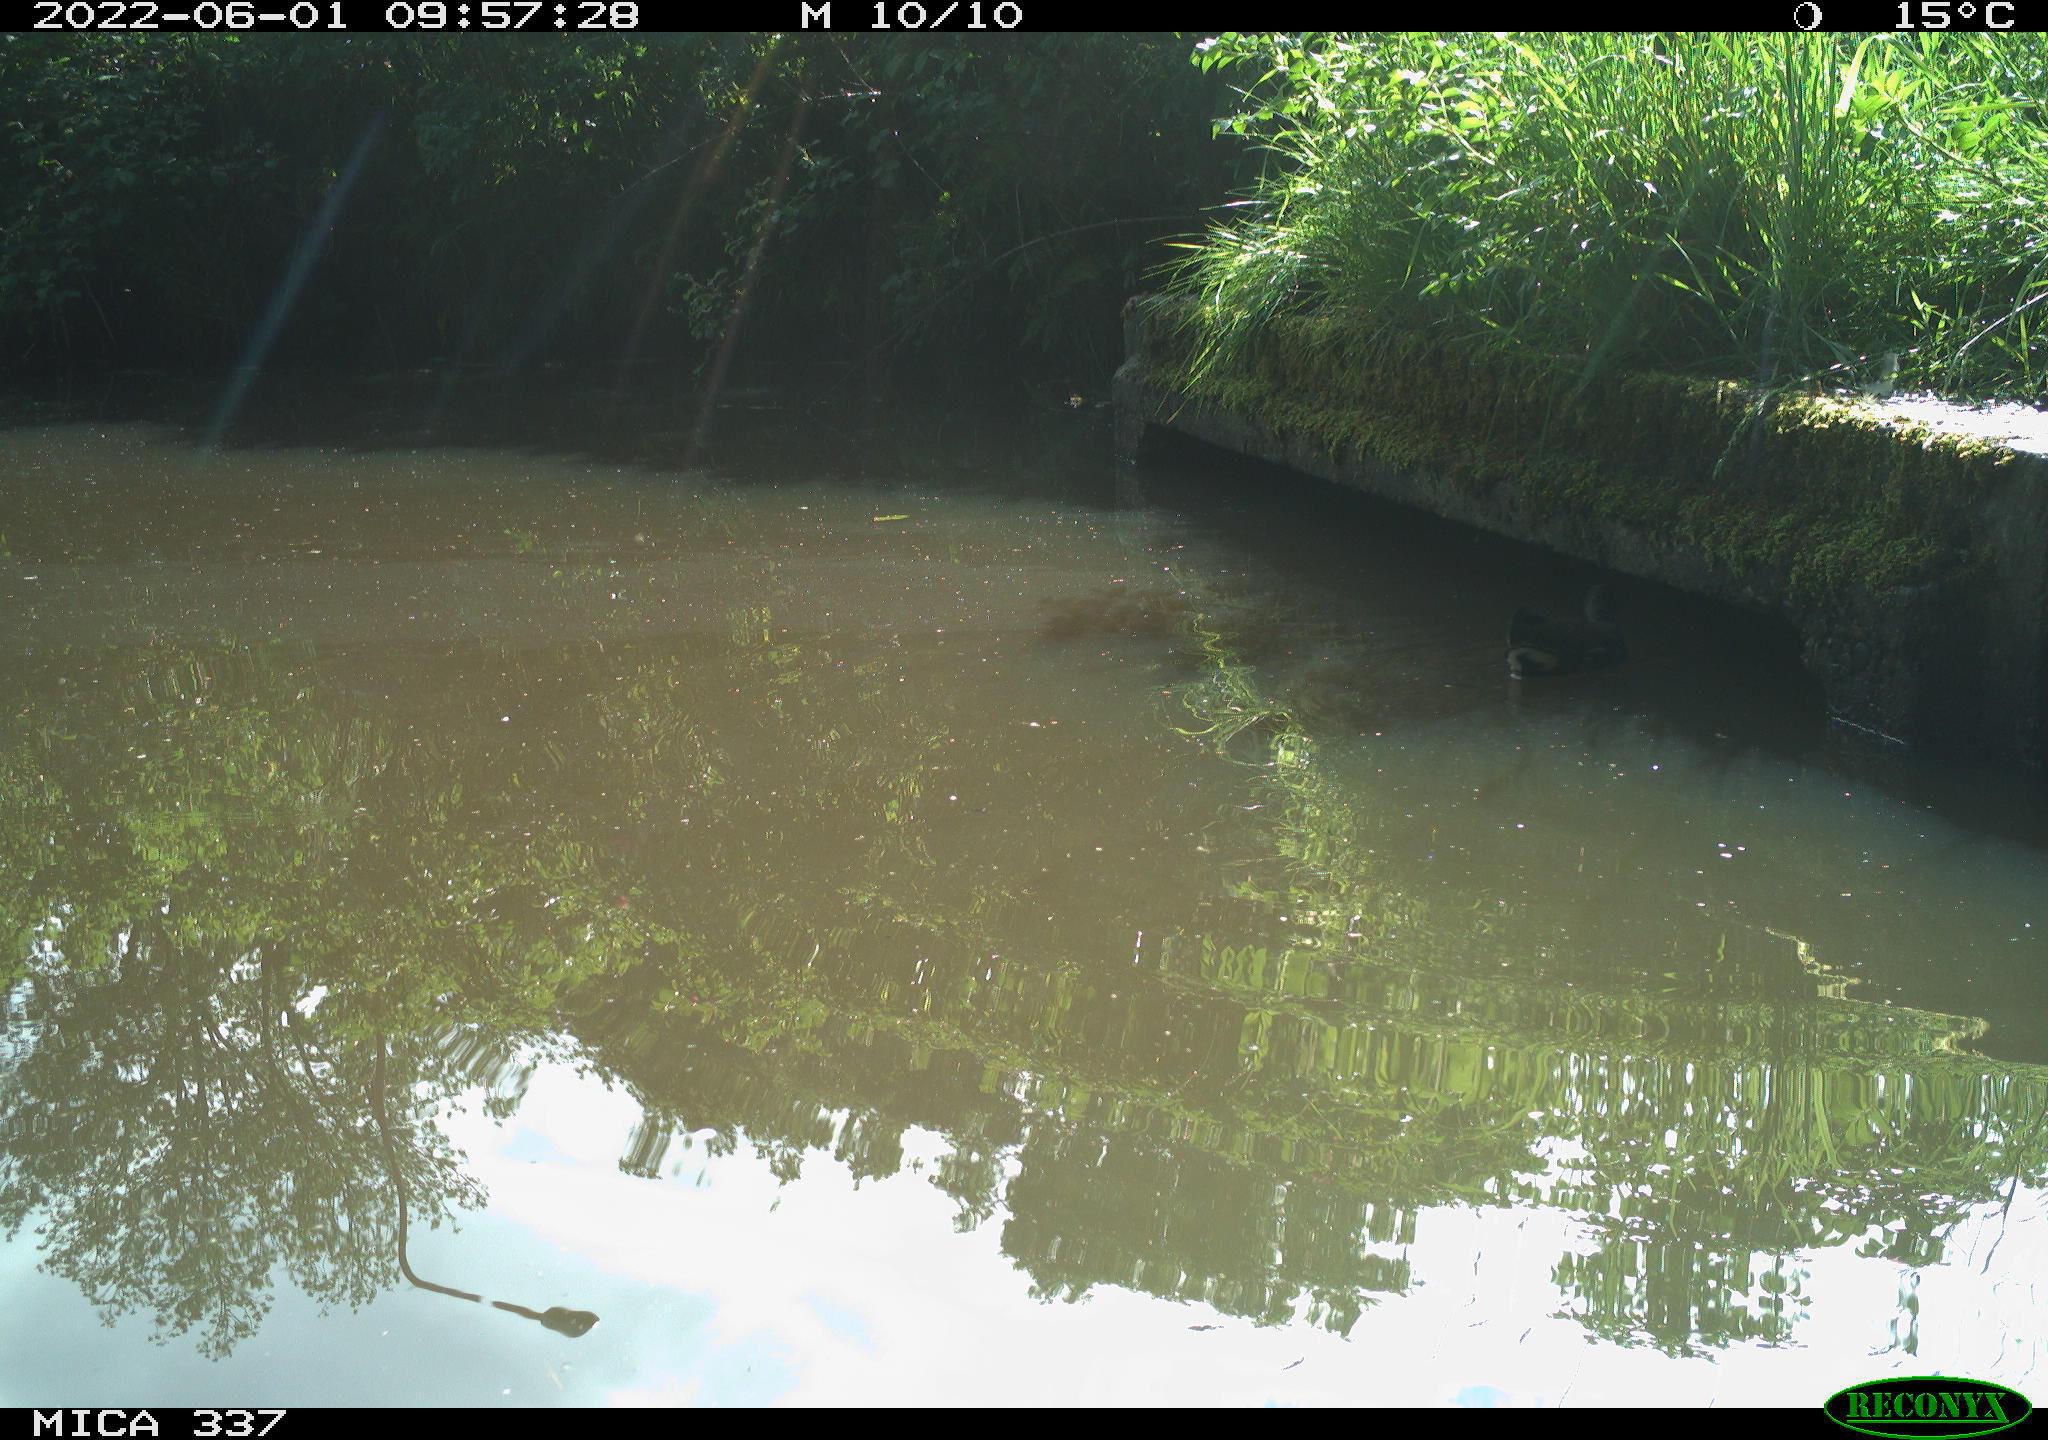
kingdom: Animalia
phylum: Chordata
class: Aves
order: Gruiformes
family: Rallidae
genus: Gallinula
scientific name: Gallinula chloropus
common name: Common moorhen
